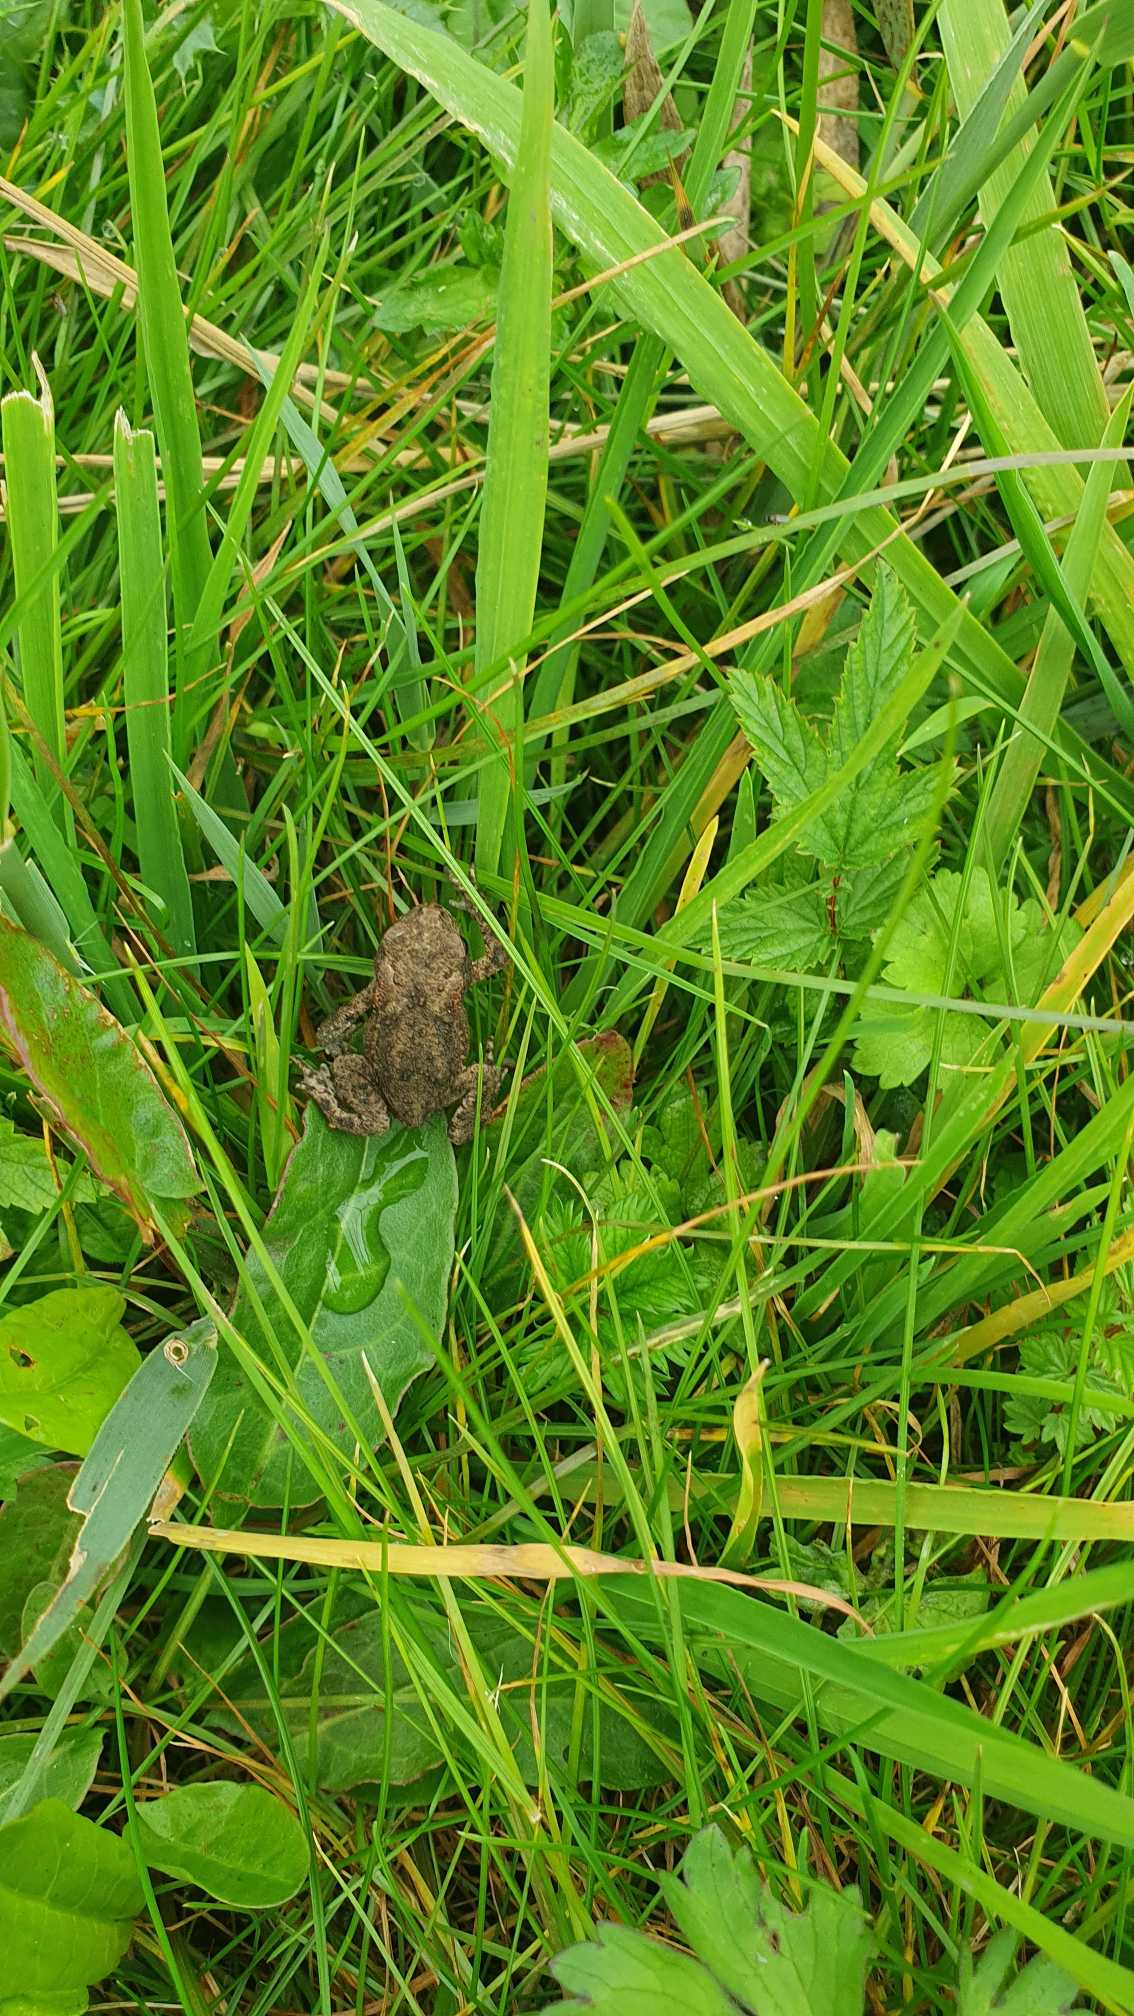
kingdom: Animalia
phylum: Chordata
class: Amphibia
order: Anura
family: Bufonidae
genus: Bufo
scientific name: Bufo bufo
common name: Skrubtudse
